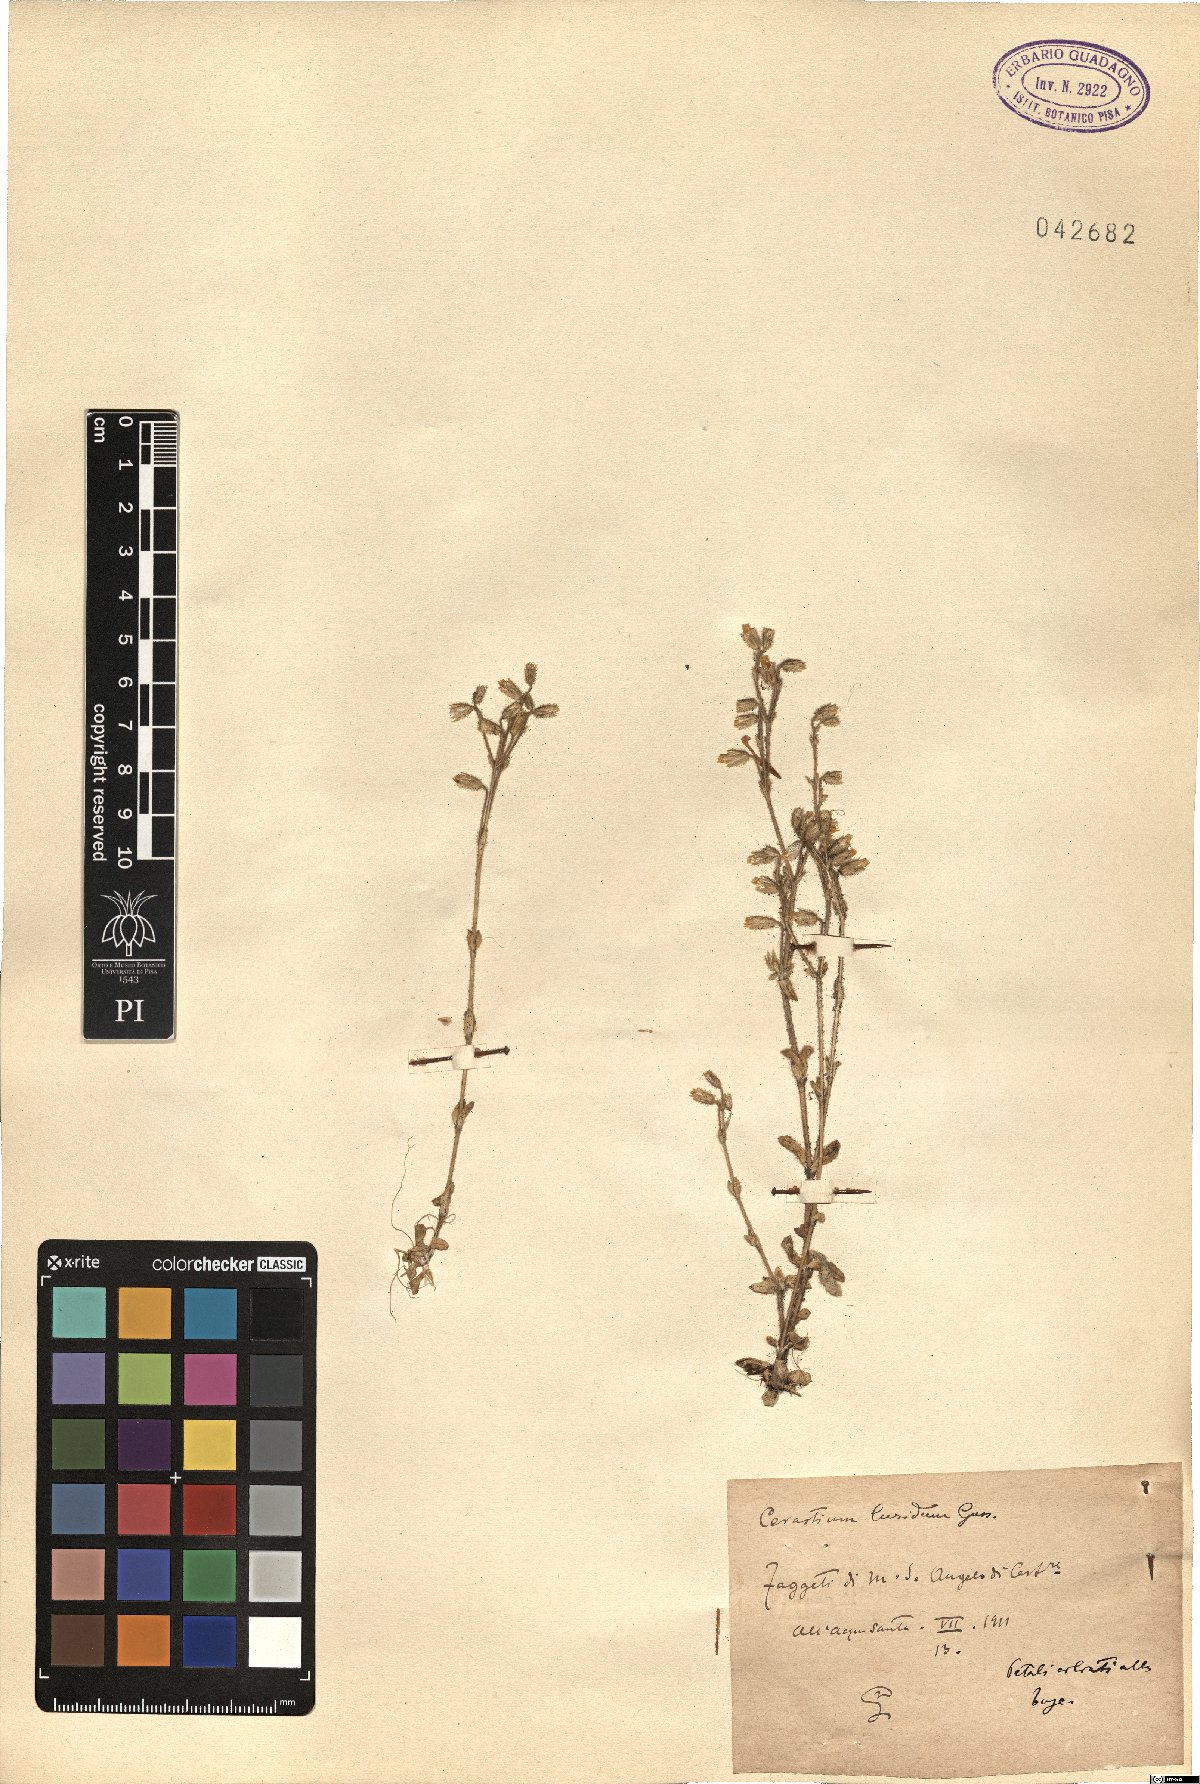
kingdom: Plantae
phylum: Tracheophyta
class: Magnoliopsida
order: Caryophyllales
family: Caryophyllaceae
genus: Cerastium
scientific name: Cerastium brachypetalum
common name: Grey mouse-ear
